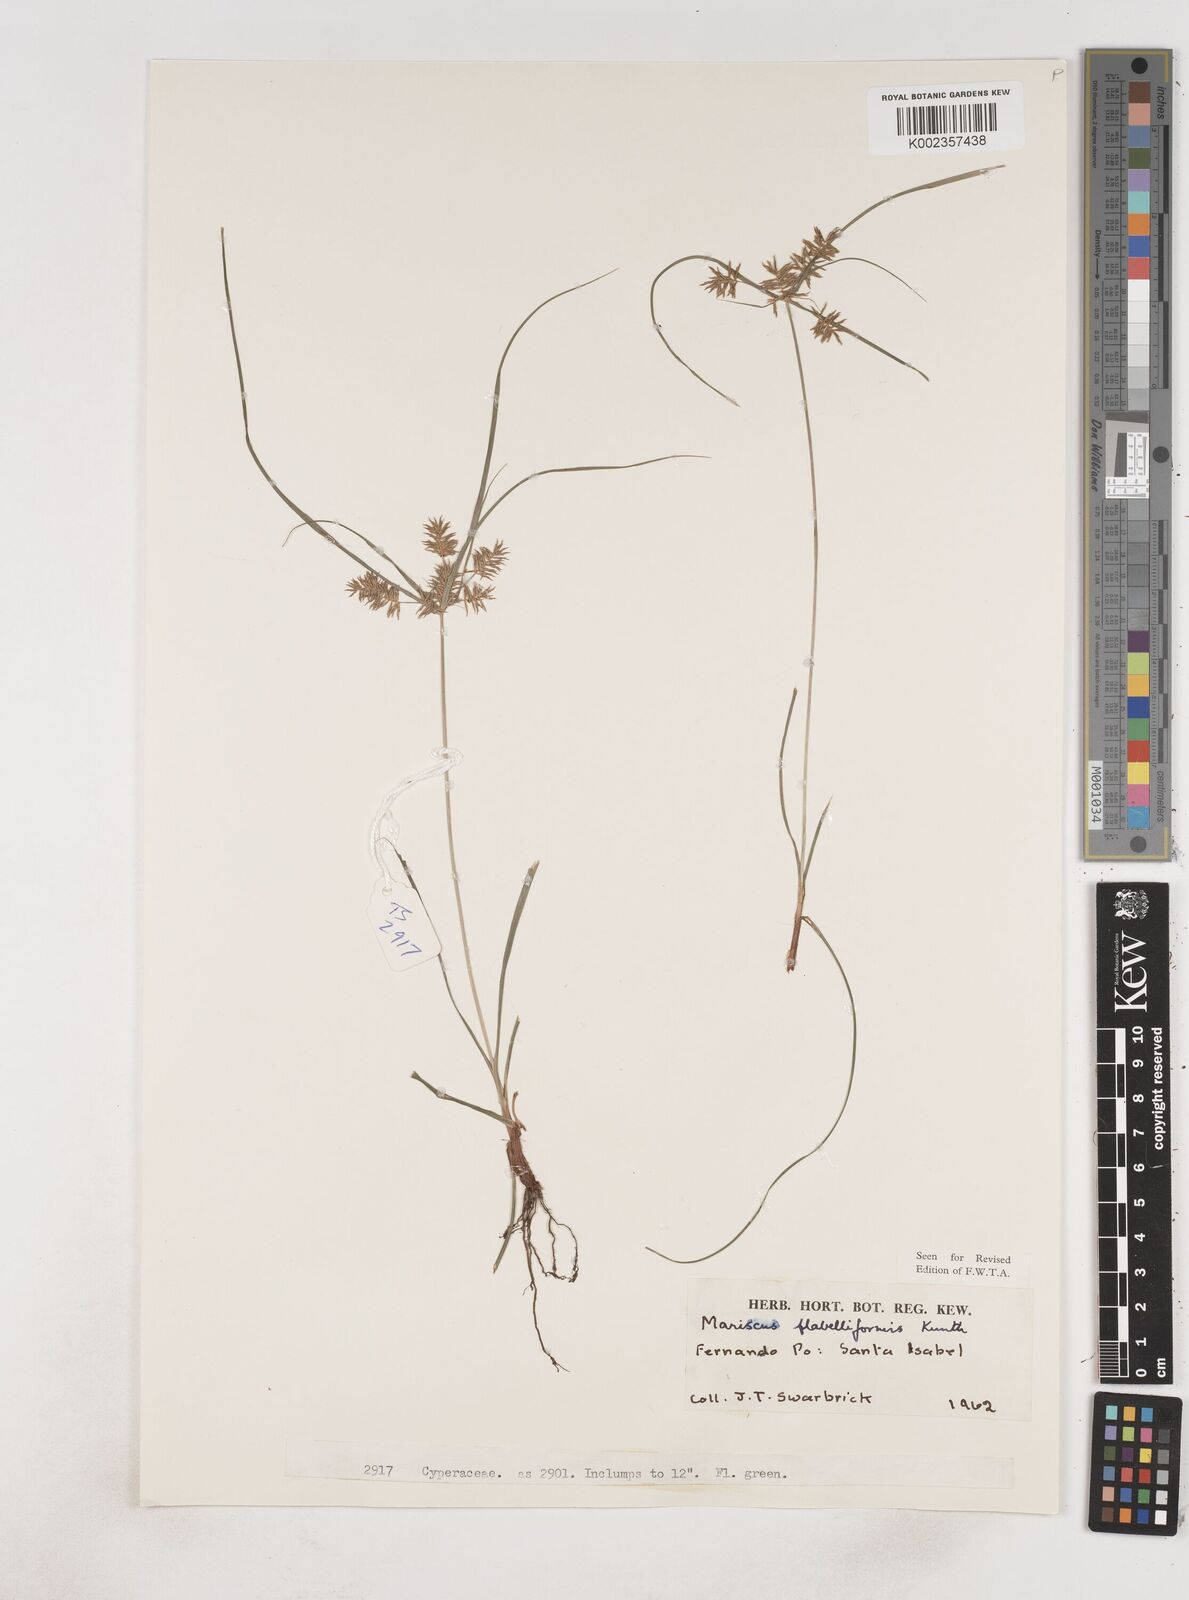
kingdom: Plantae
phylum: Tracheophyta
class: Liliopsida
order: Poales
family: Cyperaceae
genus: Cyperus
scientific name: Cyperus tenuis
